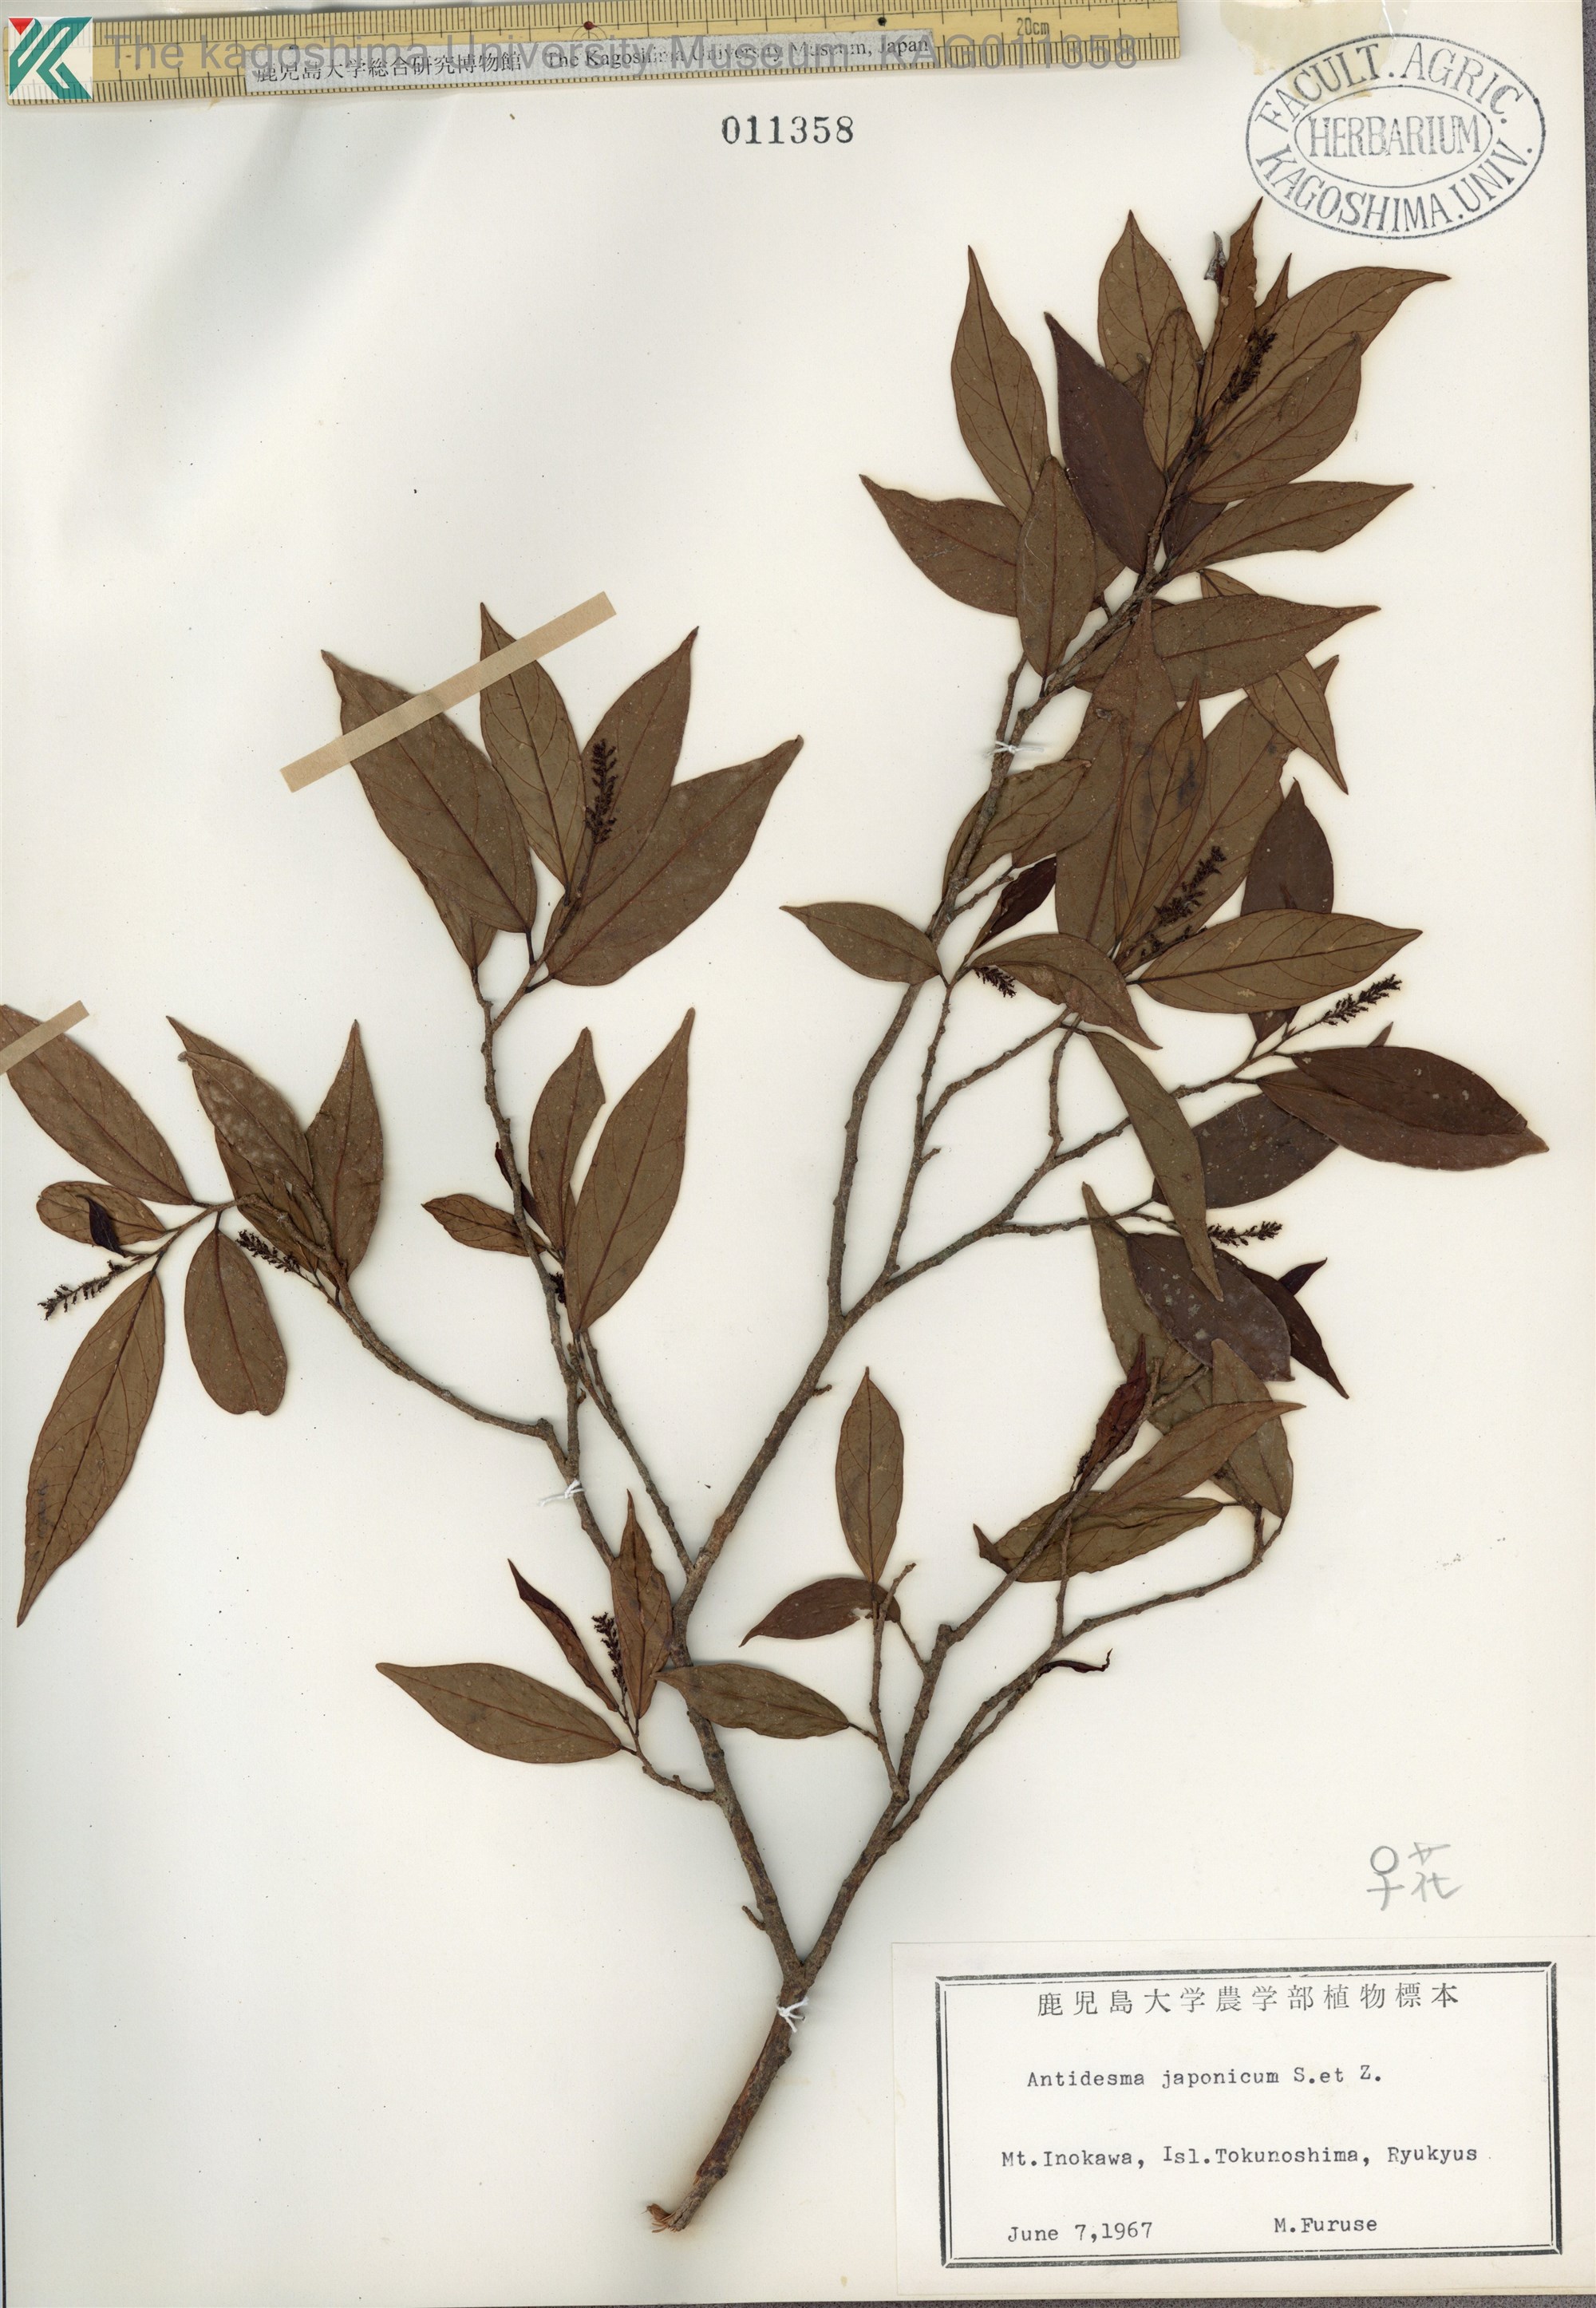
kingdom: Plantae
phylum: Tracheophyta
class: Magnoliopsida
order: Malpighiales
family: Phyllanthaceae
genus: Antidesma
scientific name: Antidesma japonicum
